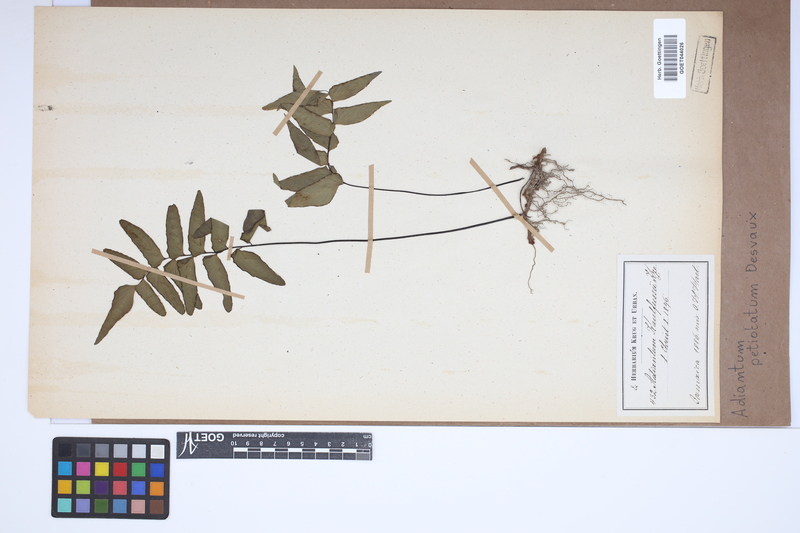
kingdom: Plantae
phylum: Tracheophyta
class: Polypodiopsida
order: Polypodiales
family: Pteridaceae
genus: Adiantum
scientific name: Adiantum petiolatum
